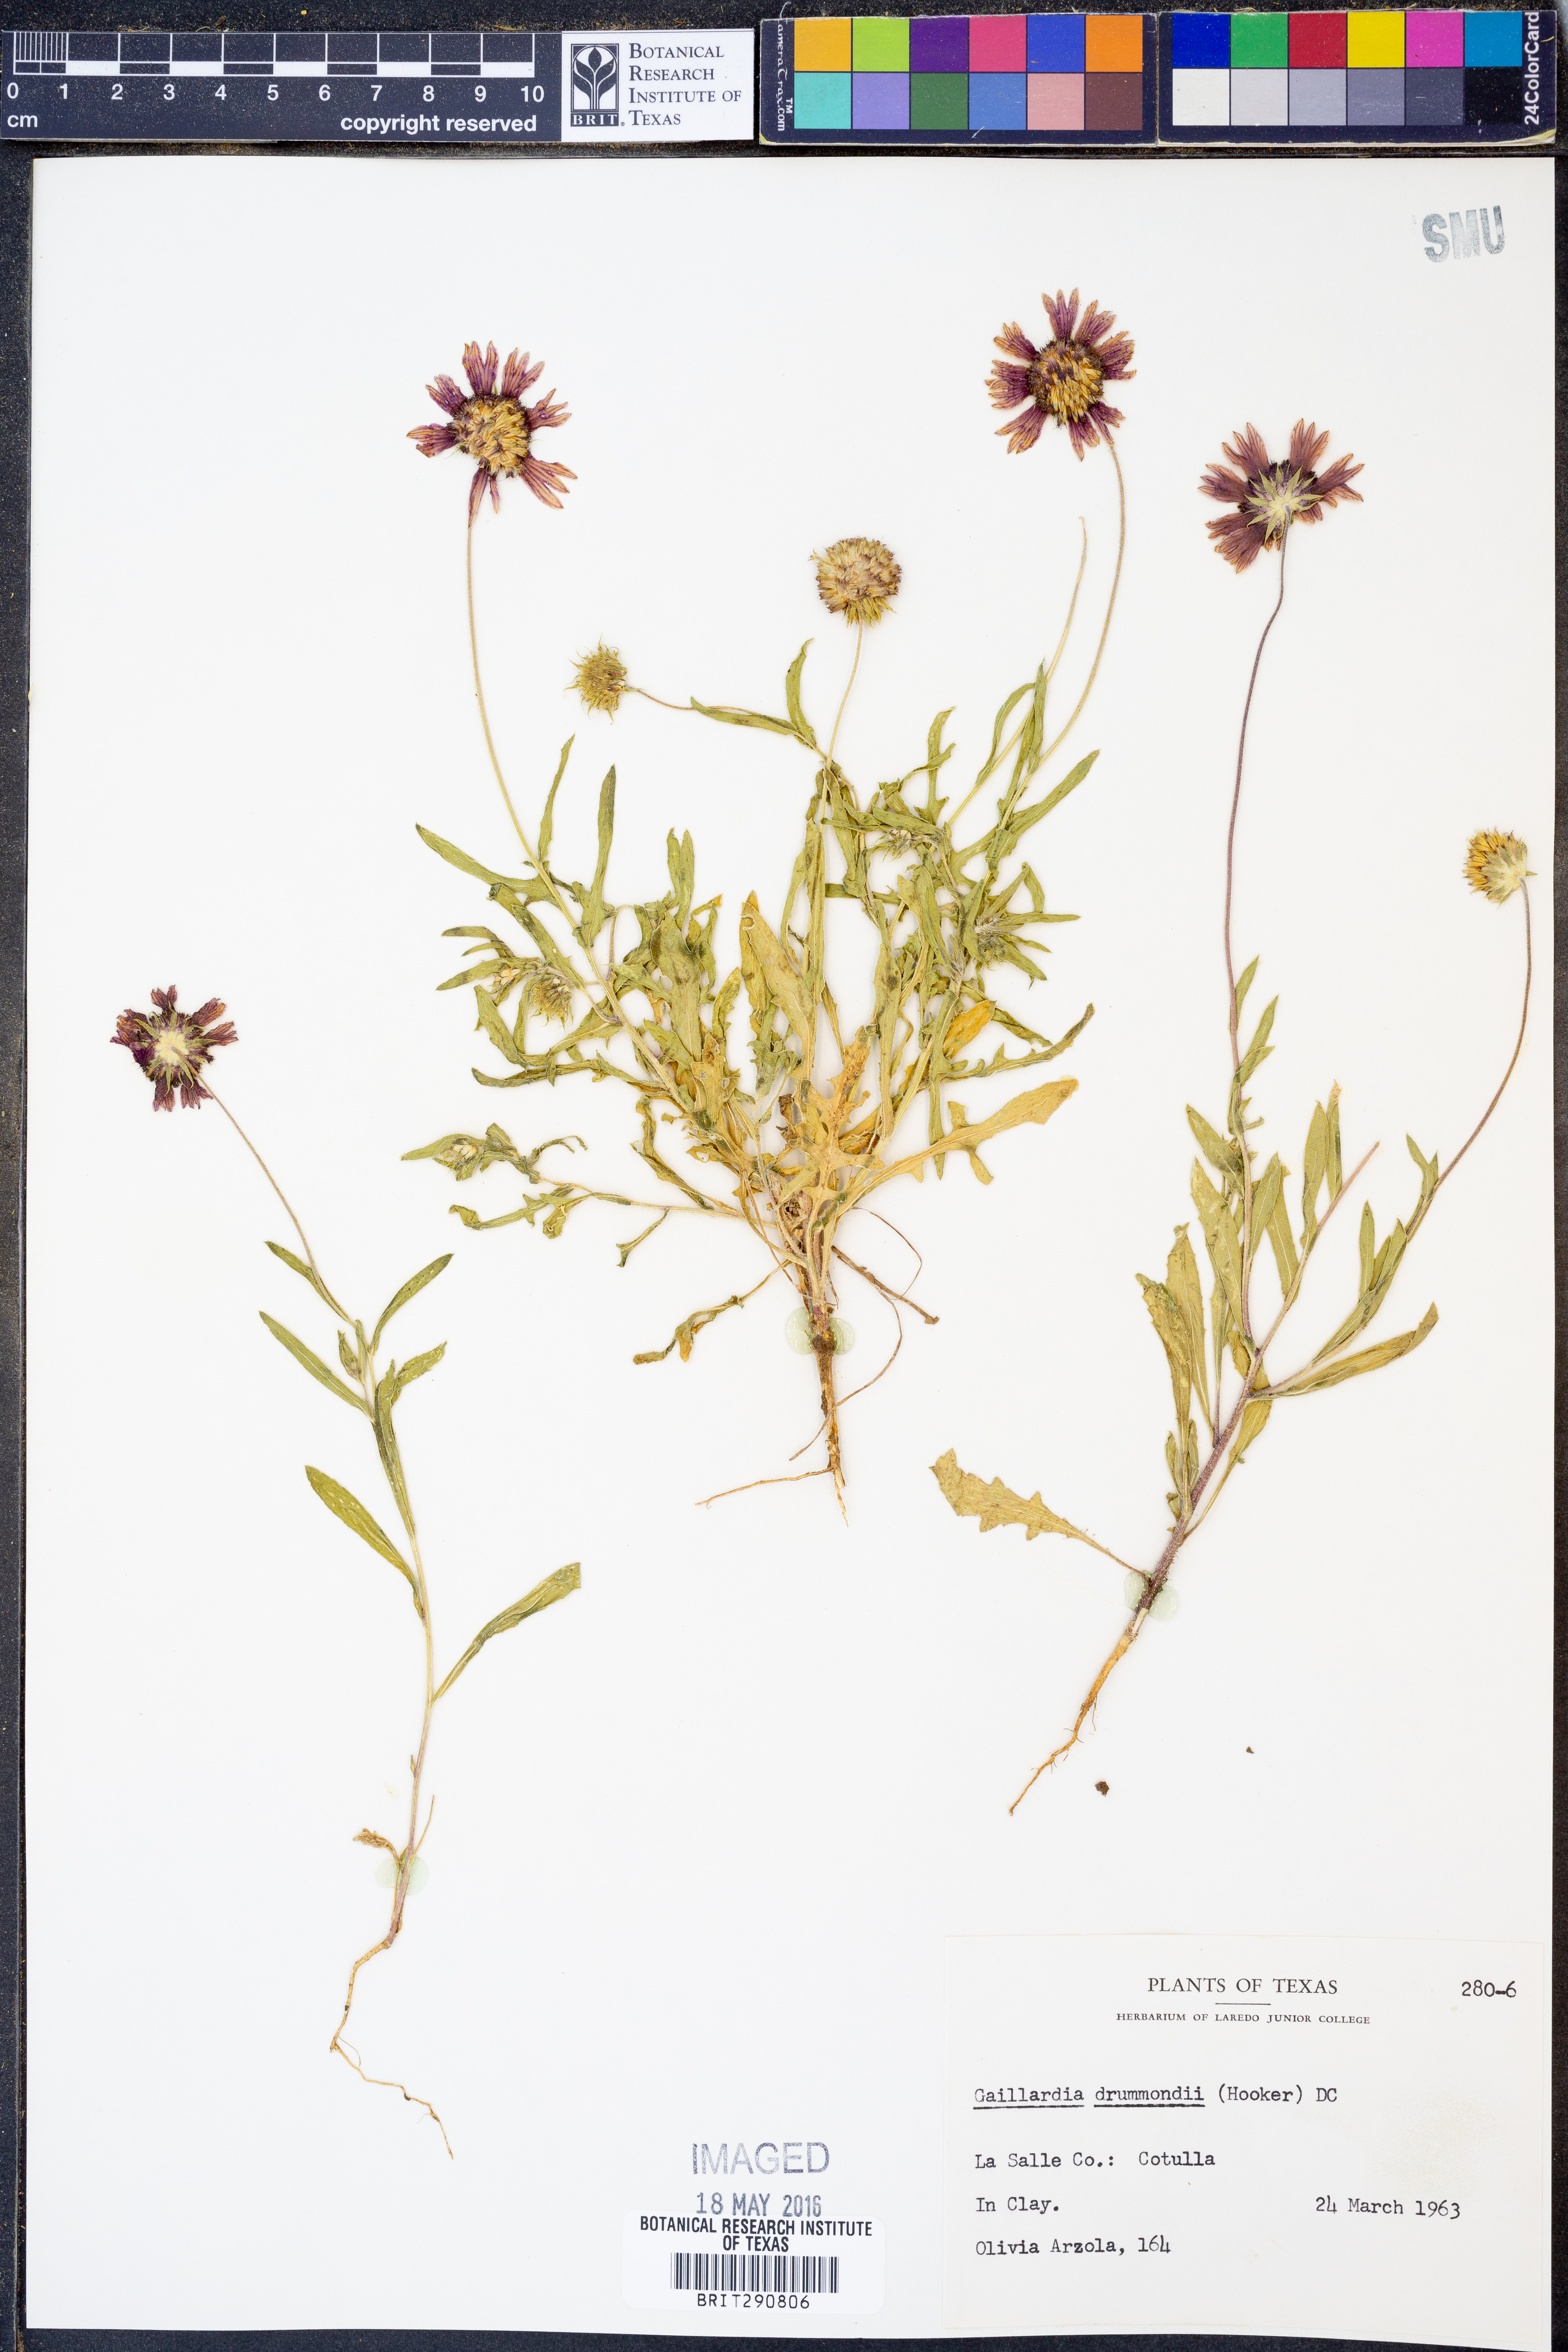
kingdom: Plantae
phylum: Tracheophyta
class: Magnoliopsida
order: Asterales
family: Asteraceae
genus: Gaillardia
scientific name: Gaillardia pulchella
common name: Firewheel
